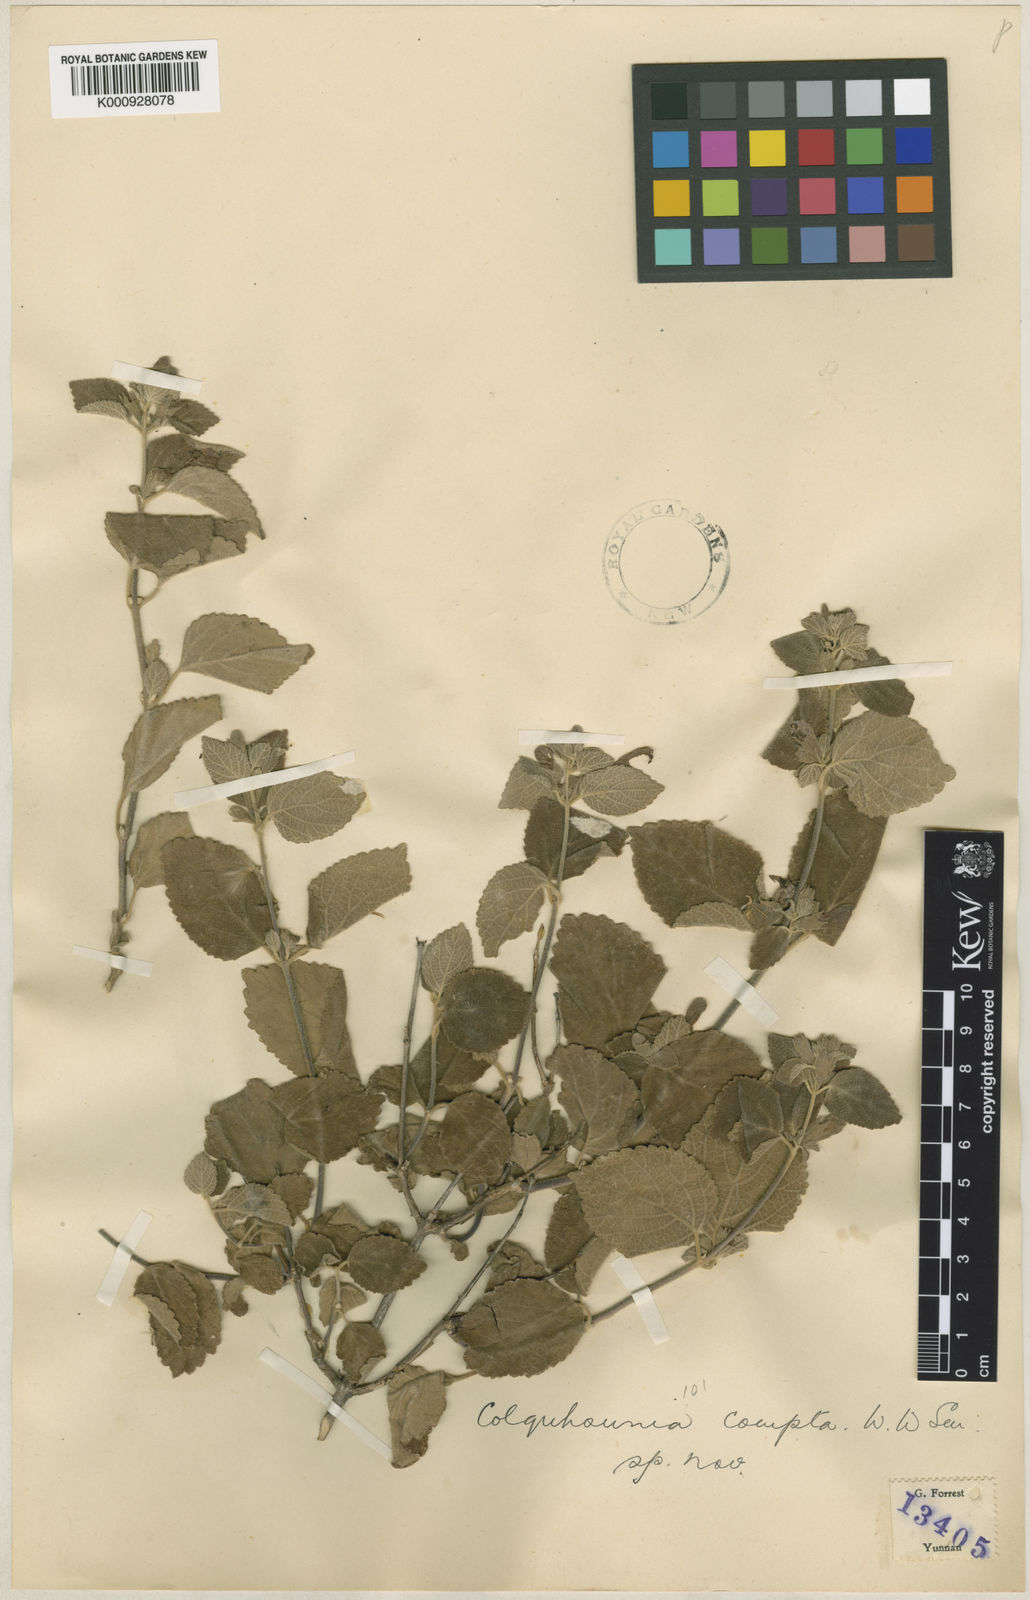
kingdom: Plantae
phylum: Tracheophyta
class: Magnoliopsida
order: Lamiales
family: Lamiaceae
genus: Colquhounia
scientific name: Colquhounia compta
